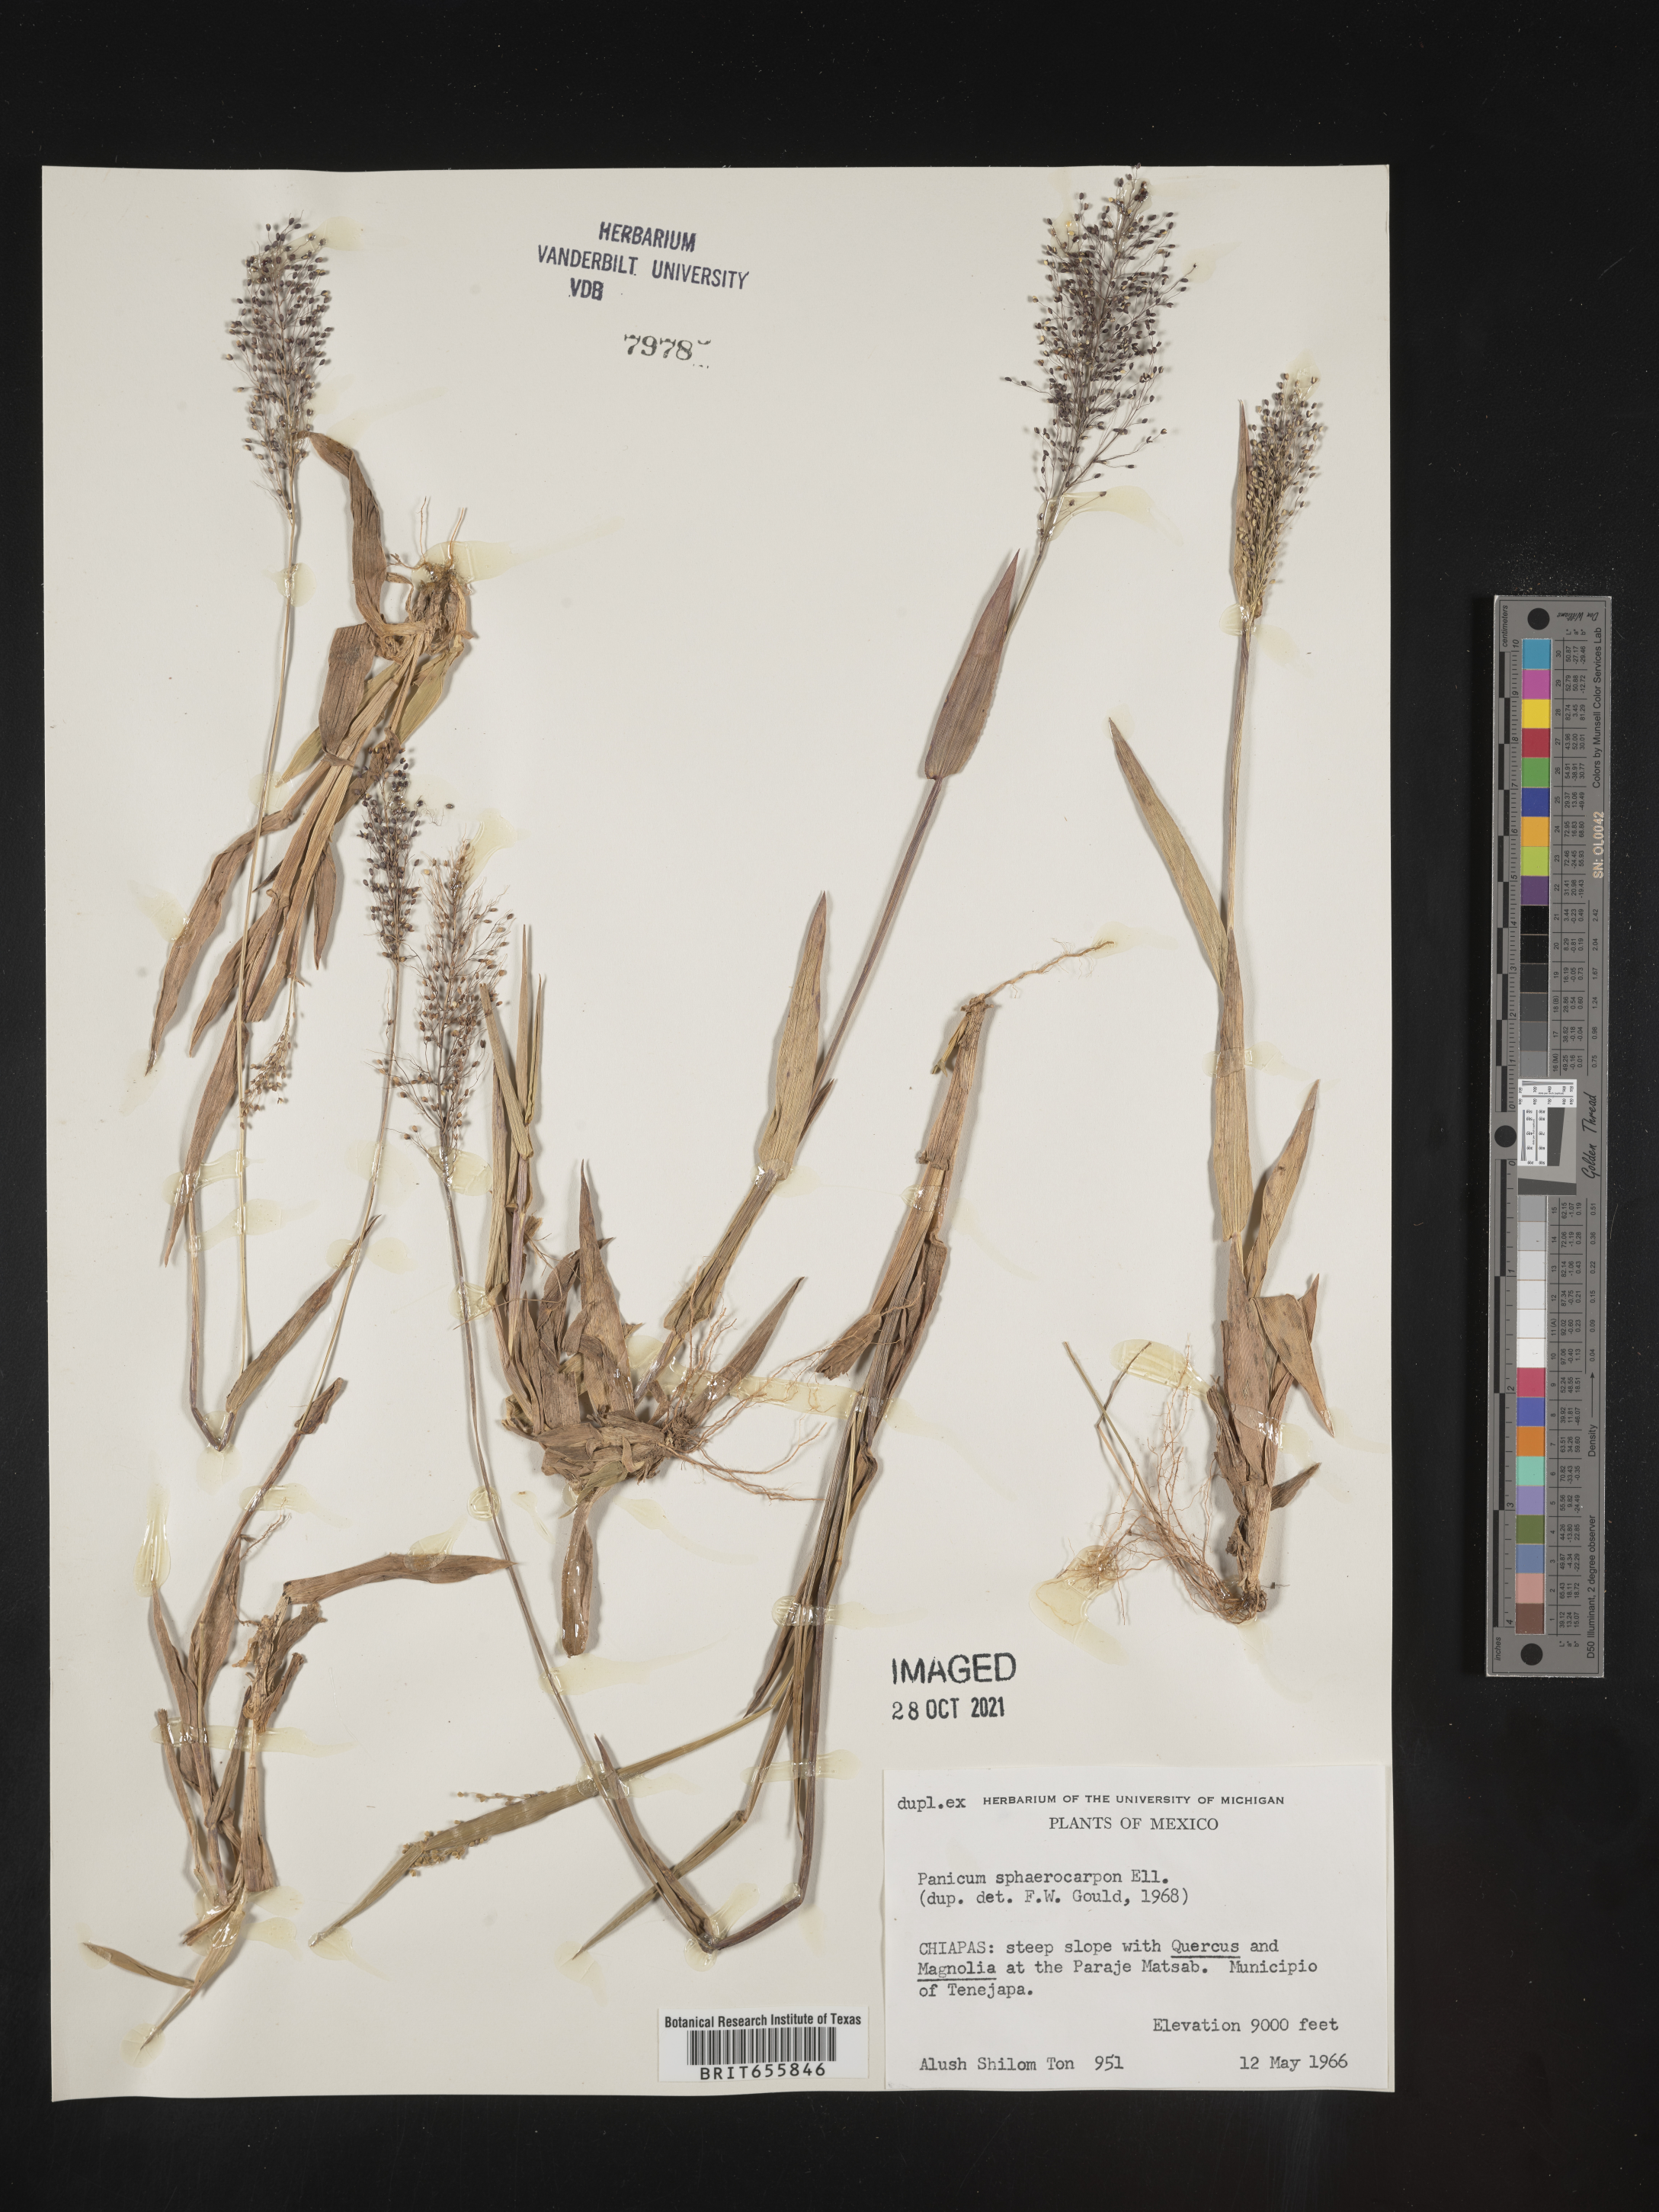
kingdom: Plantae
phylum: Tracheophyta
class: Liliopsida
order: Poales
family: Poaceae
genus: Panicum
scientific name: Panicum
